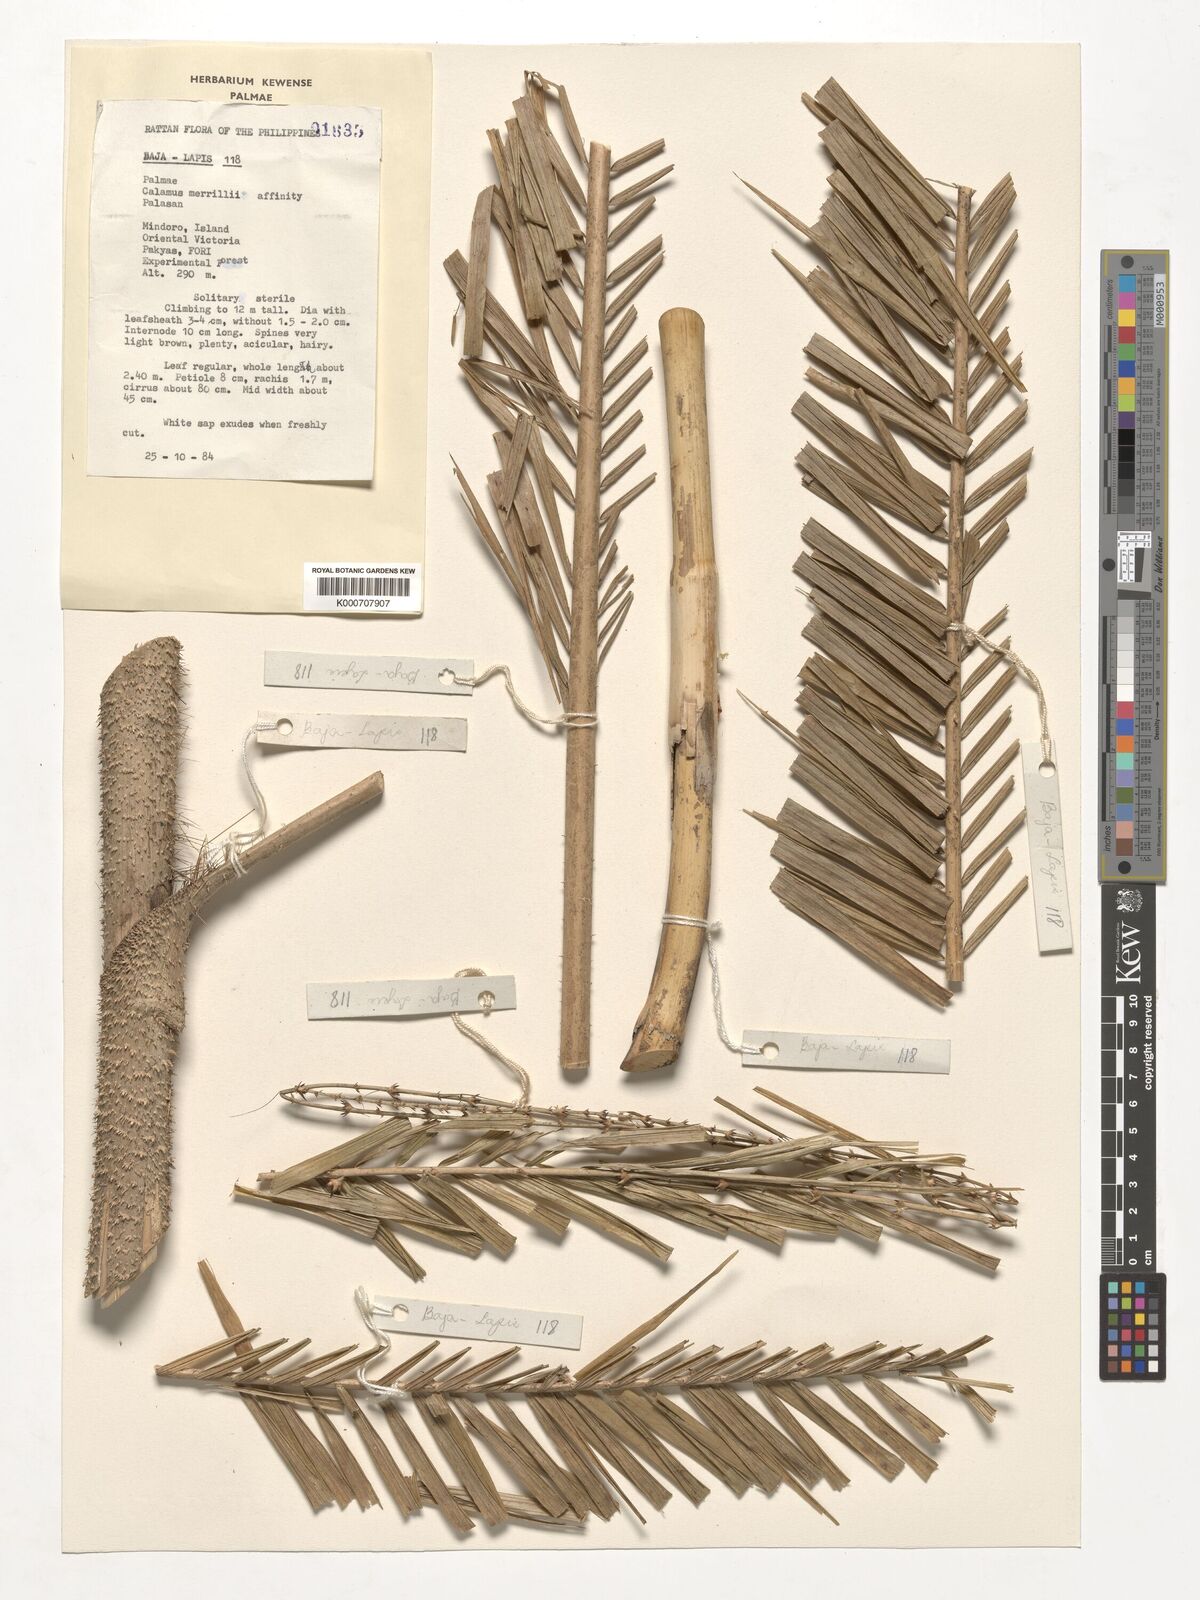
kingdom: Plantae
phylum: Tracheophyta
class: Liliopsida
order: Arecales
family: Arecaceae
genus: Calamus
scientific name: Calamus zollingeri
